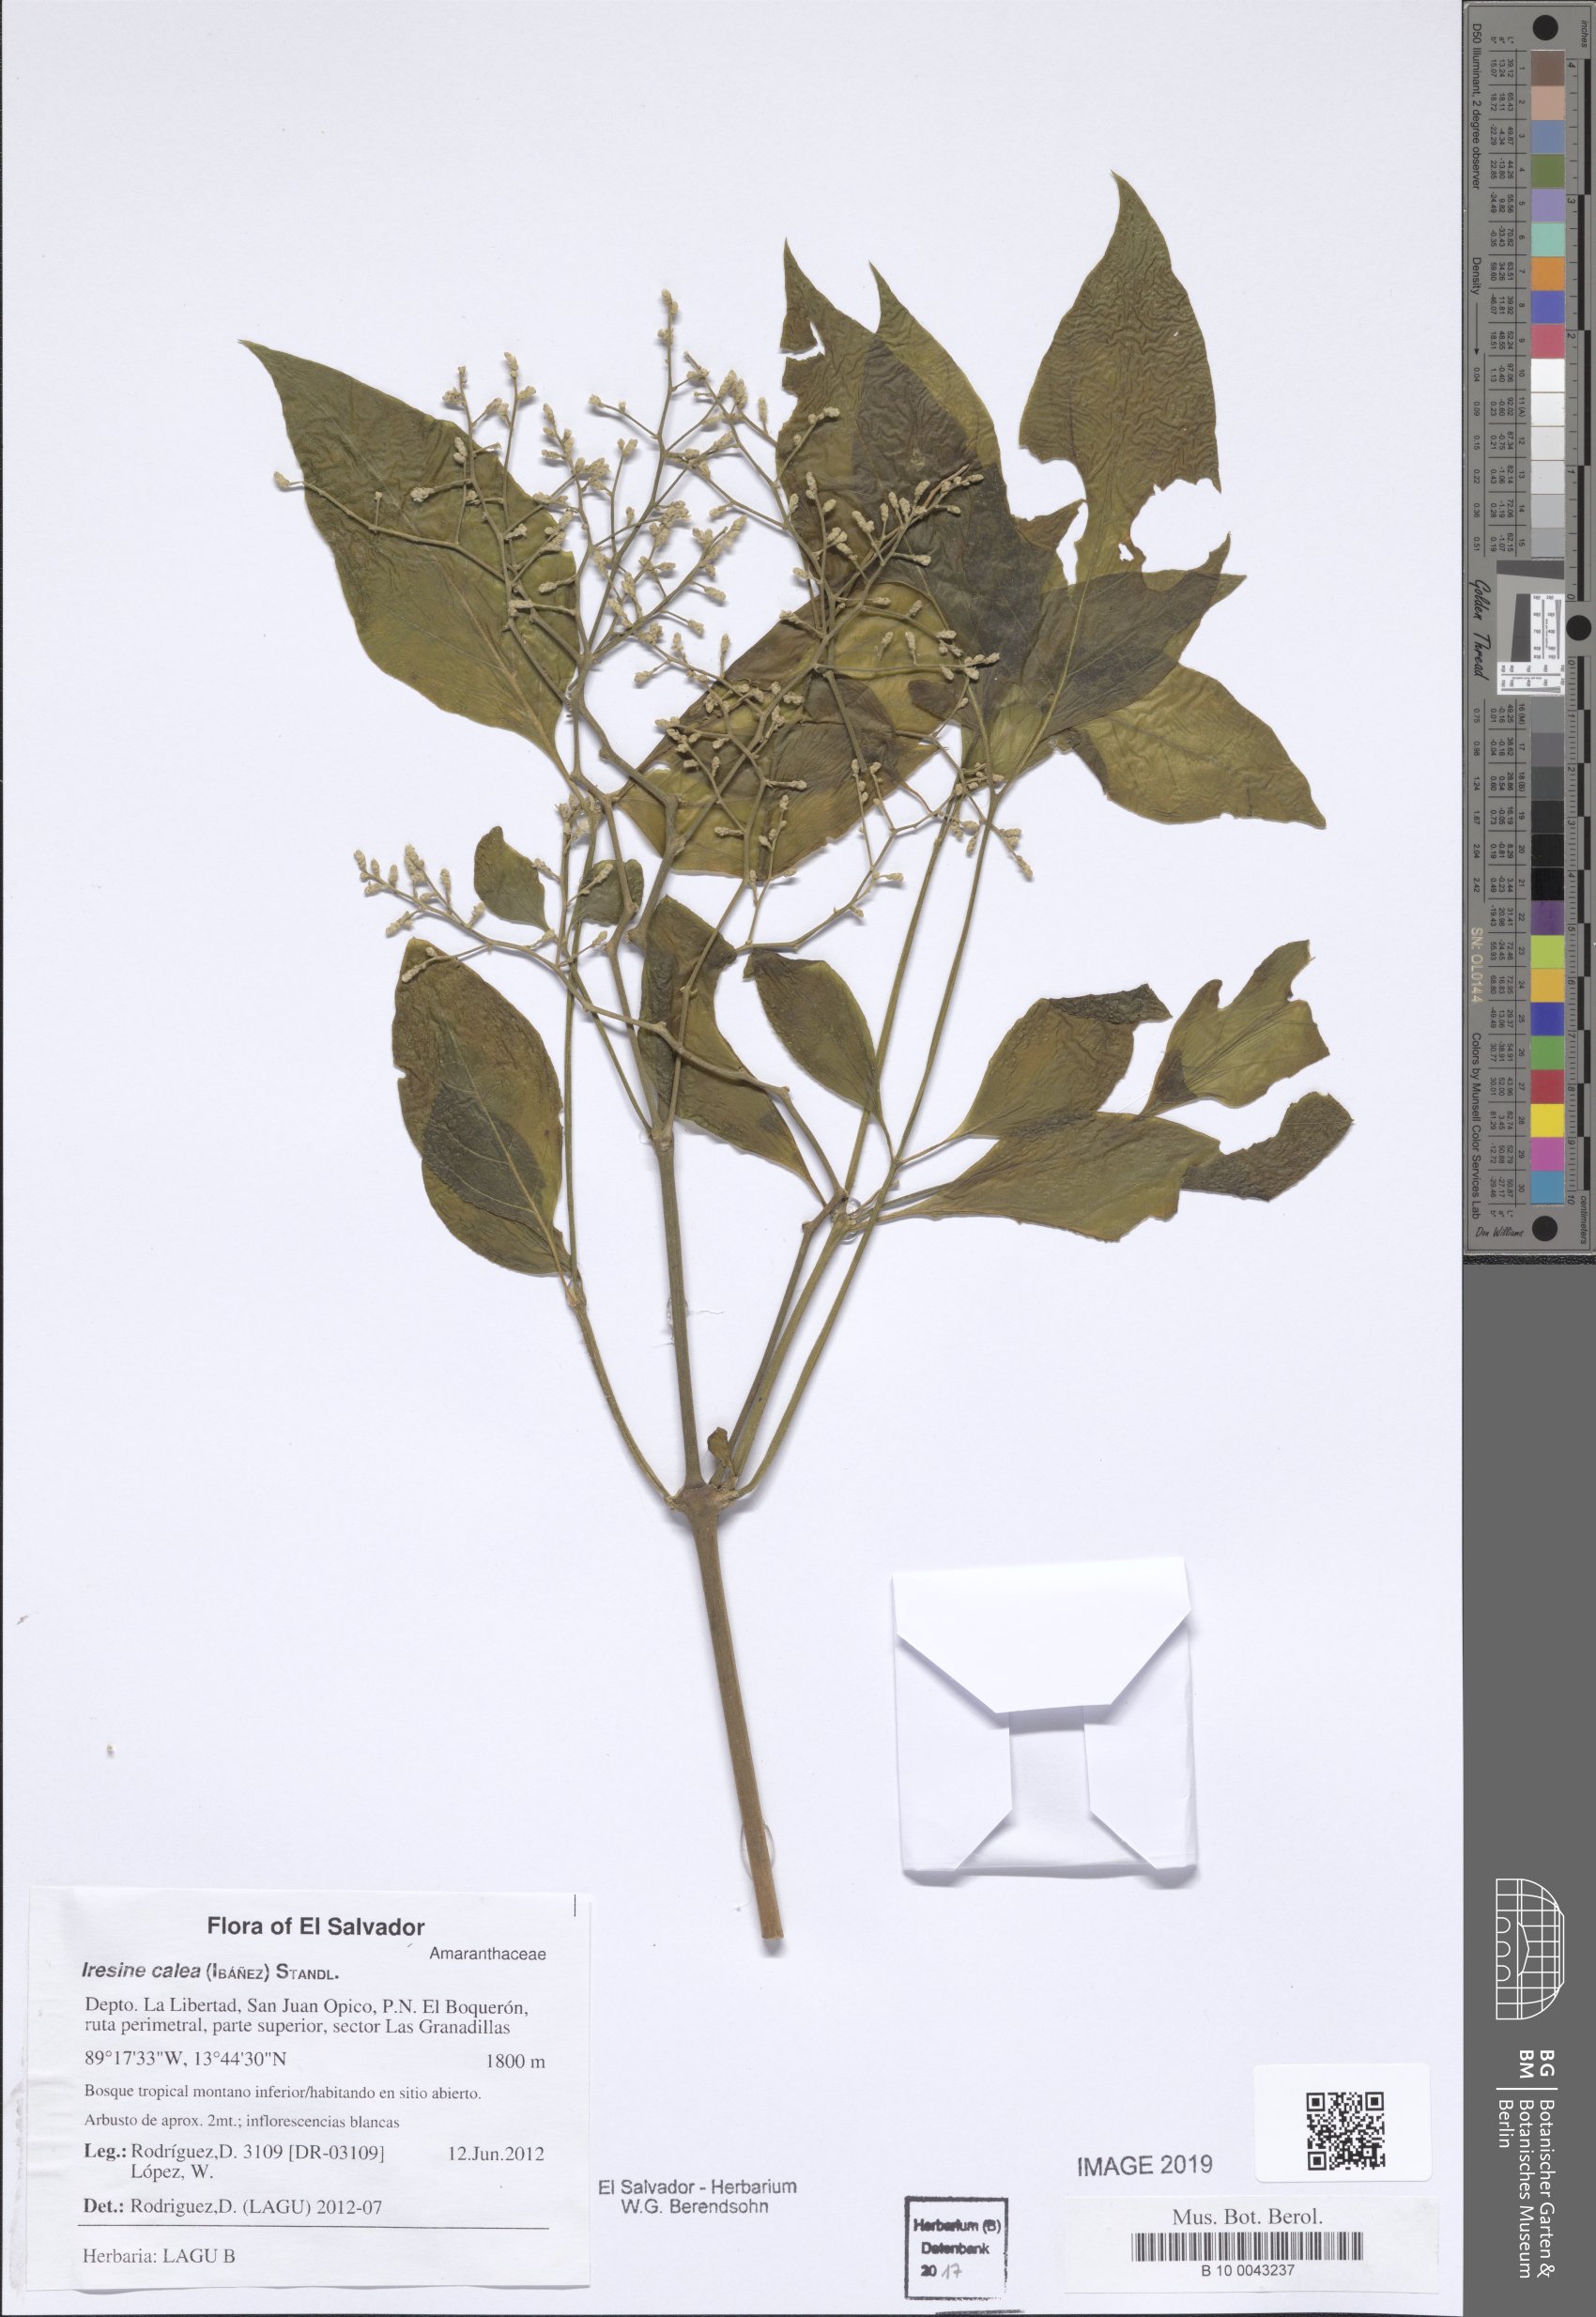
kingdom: Plantae
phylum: Tracheophyta
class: Magnoliopsida
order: Caryophyllales
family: Amaranthaceae
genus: Iresine
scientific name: Iresine latifolia
